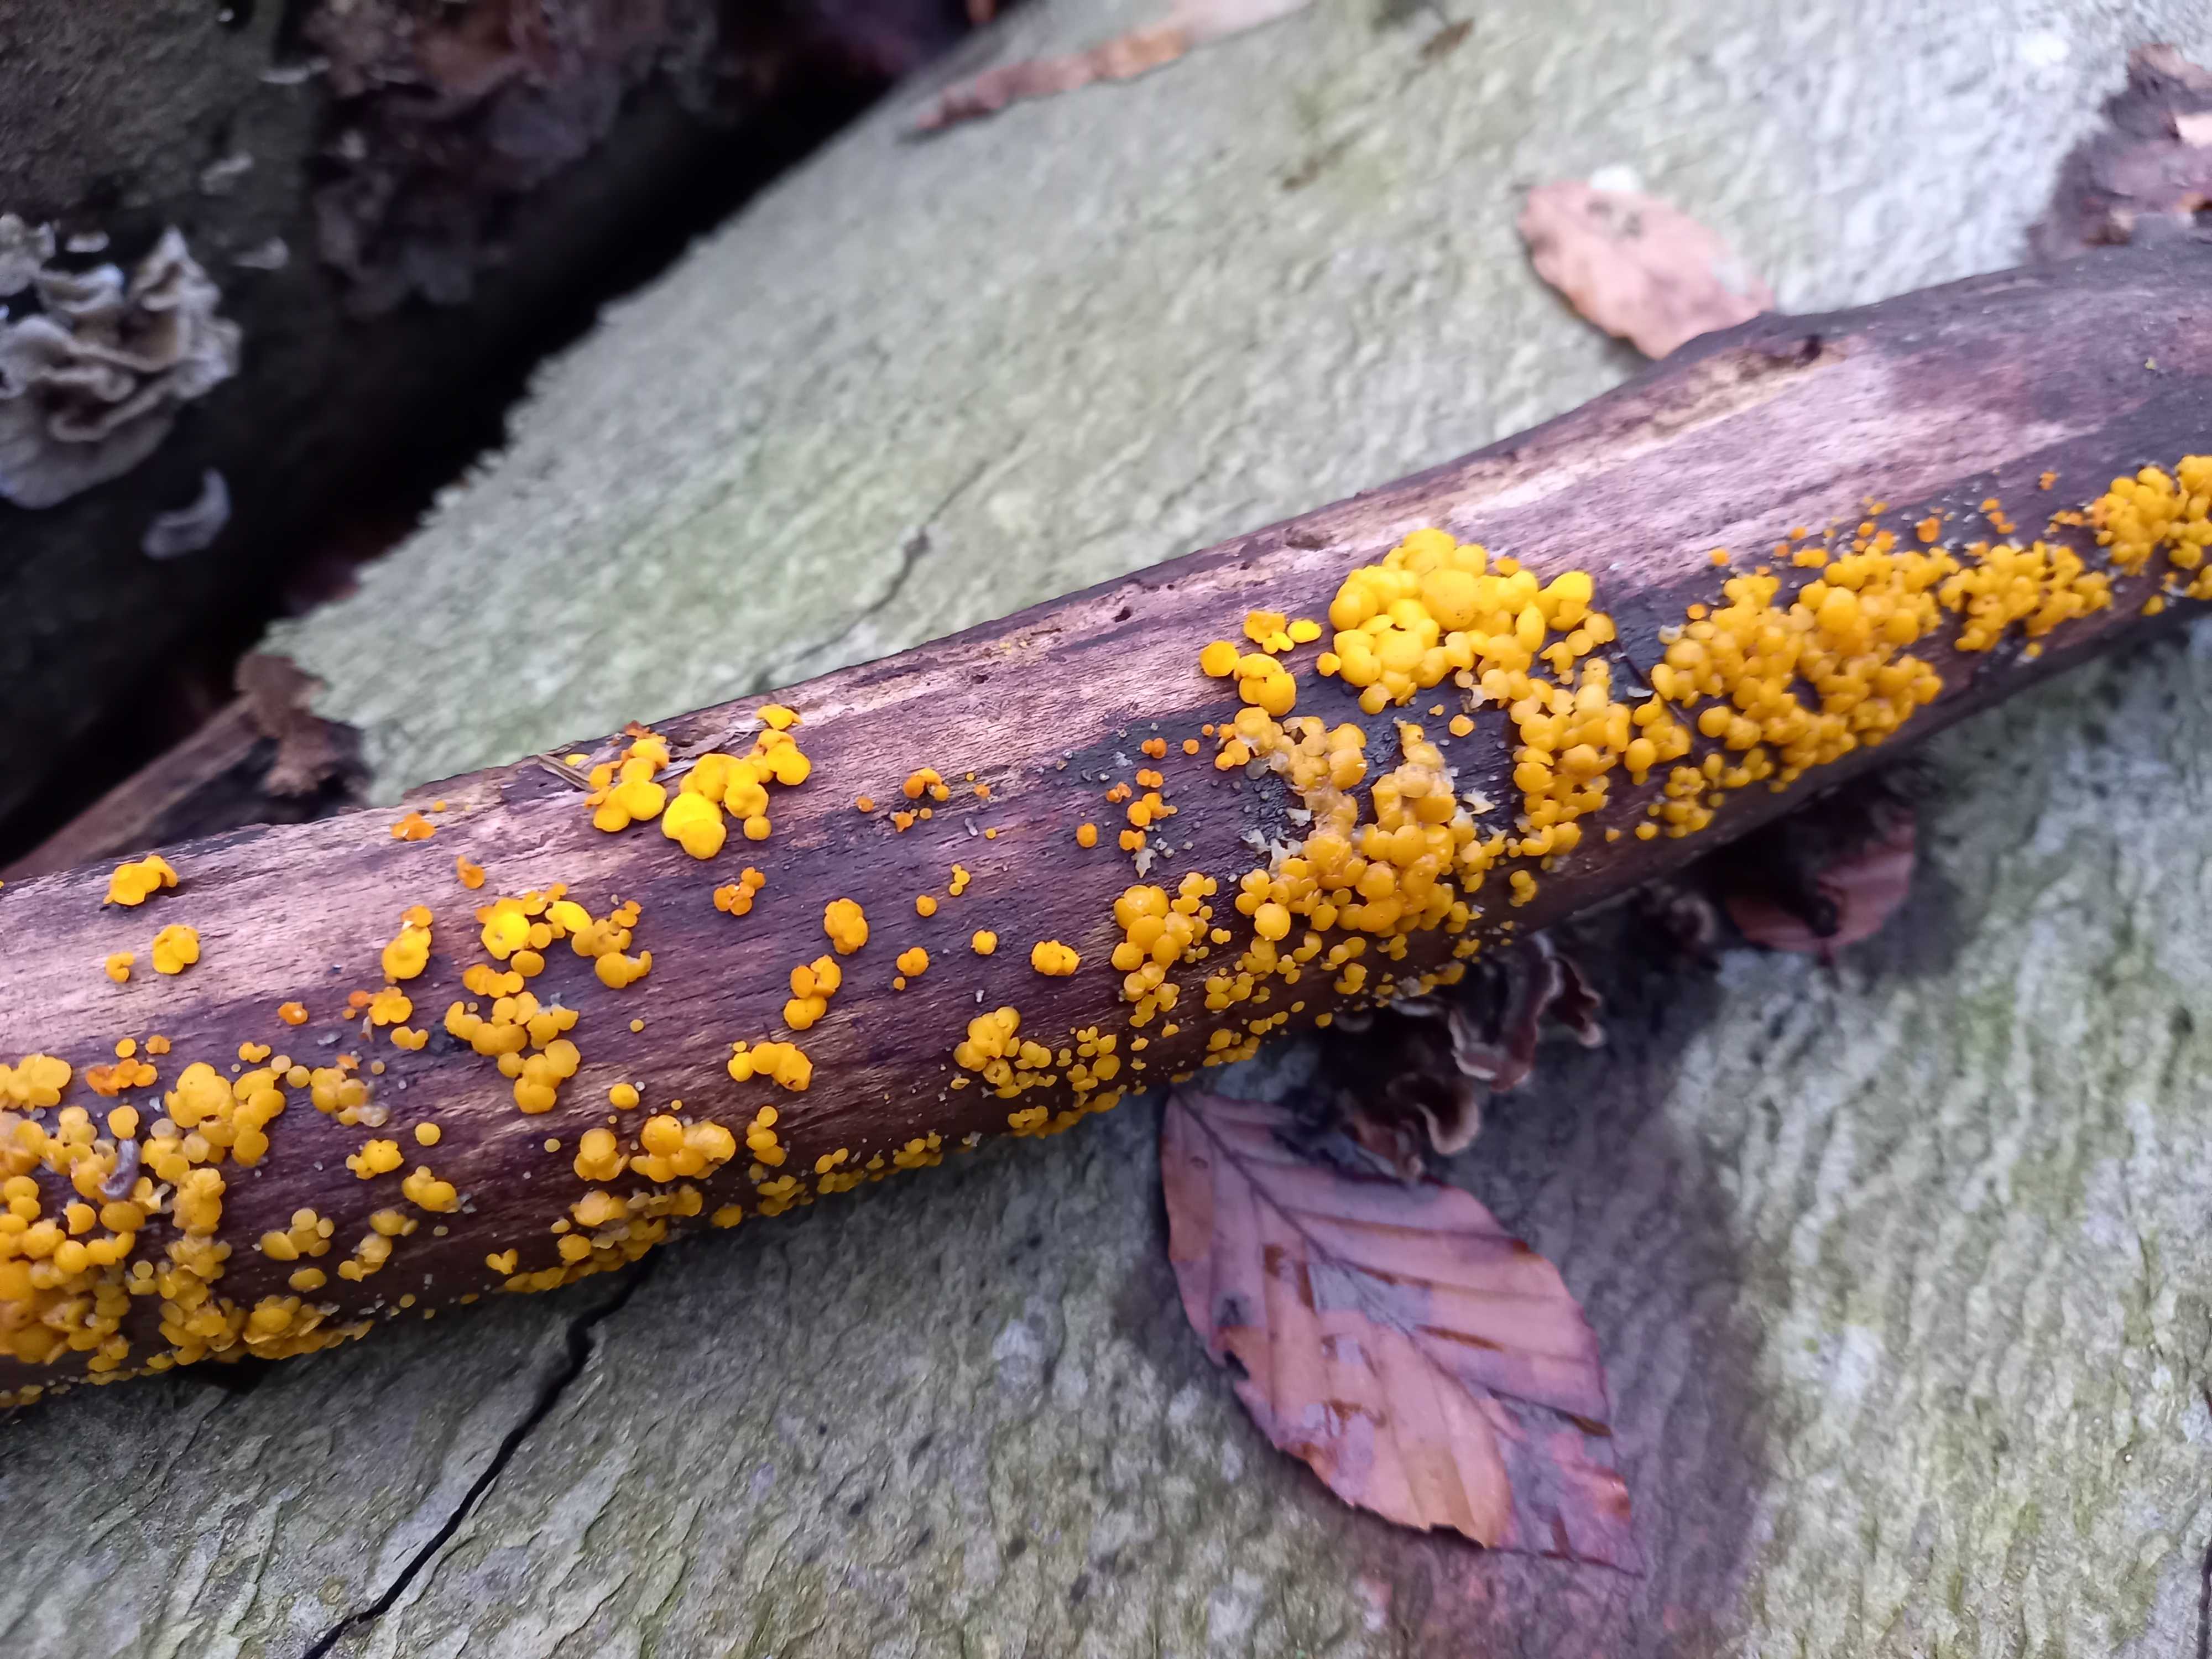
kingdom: Fungi
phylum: Ascomycota
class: Leotiomycetes
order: Helotiales
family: Pezizellaceae
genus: Calycina
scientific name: Calycina citrina
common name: almindelig gulskive
